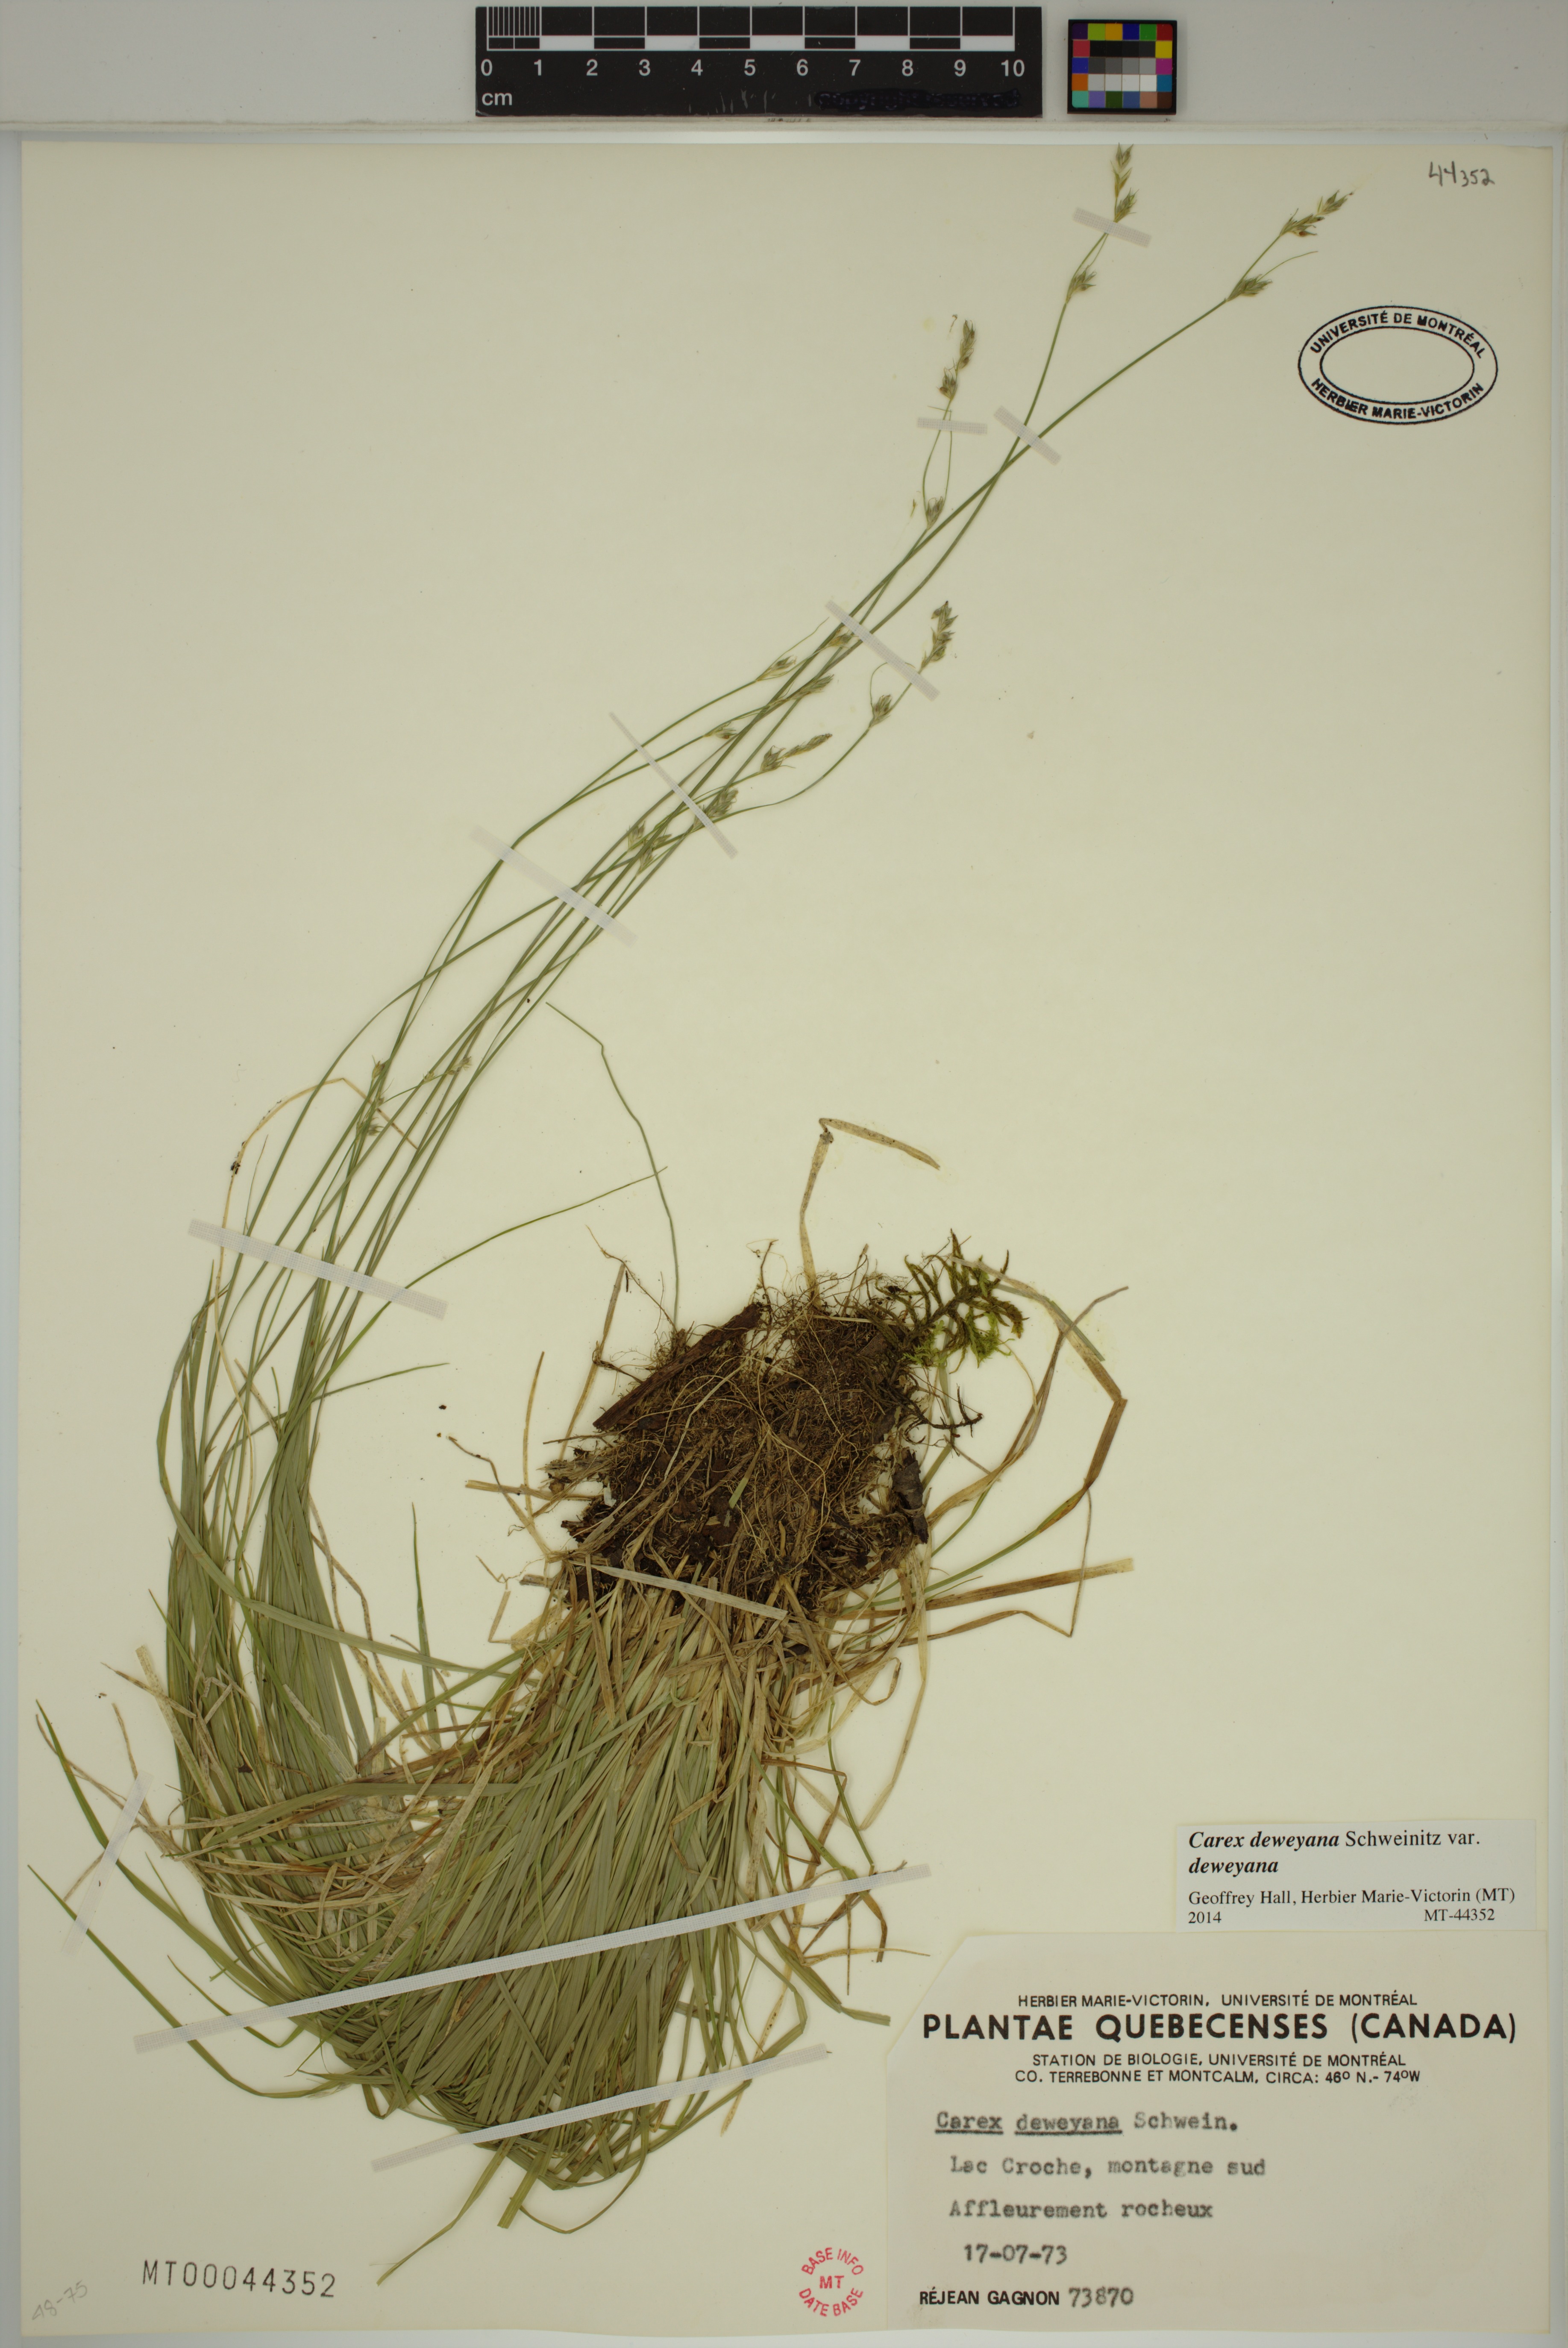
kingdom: Plantae
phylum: Tracheophyta
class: Liliopsida
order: Poales
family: Cyperaceae
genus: Carex
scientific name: Carex deweyana
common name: Dewey's sedge
